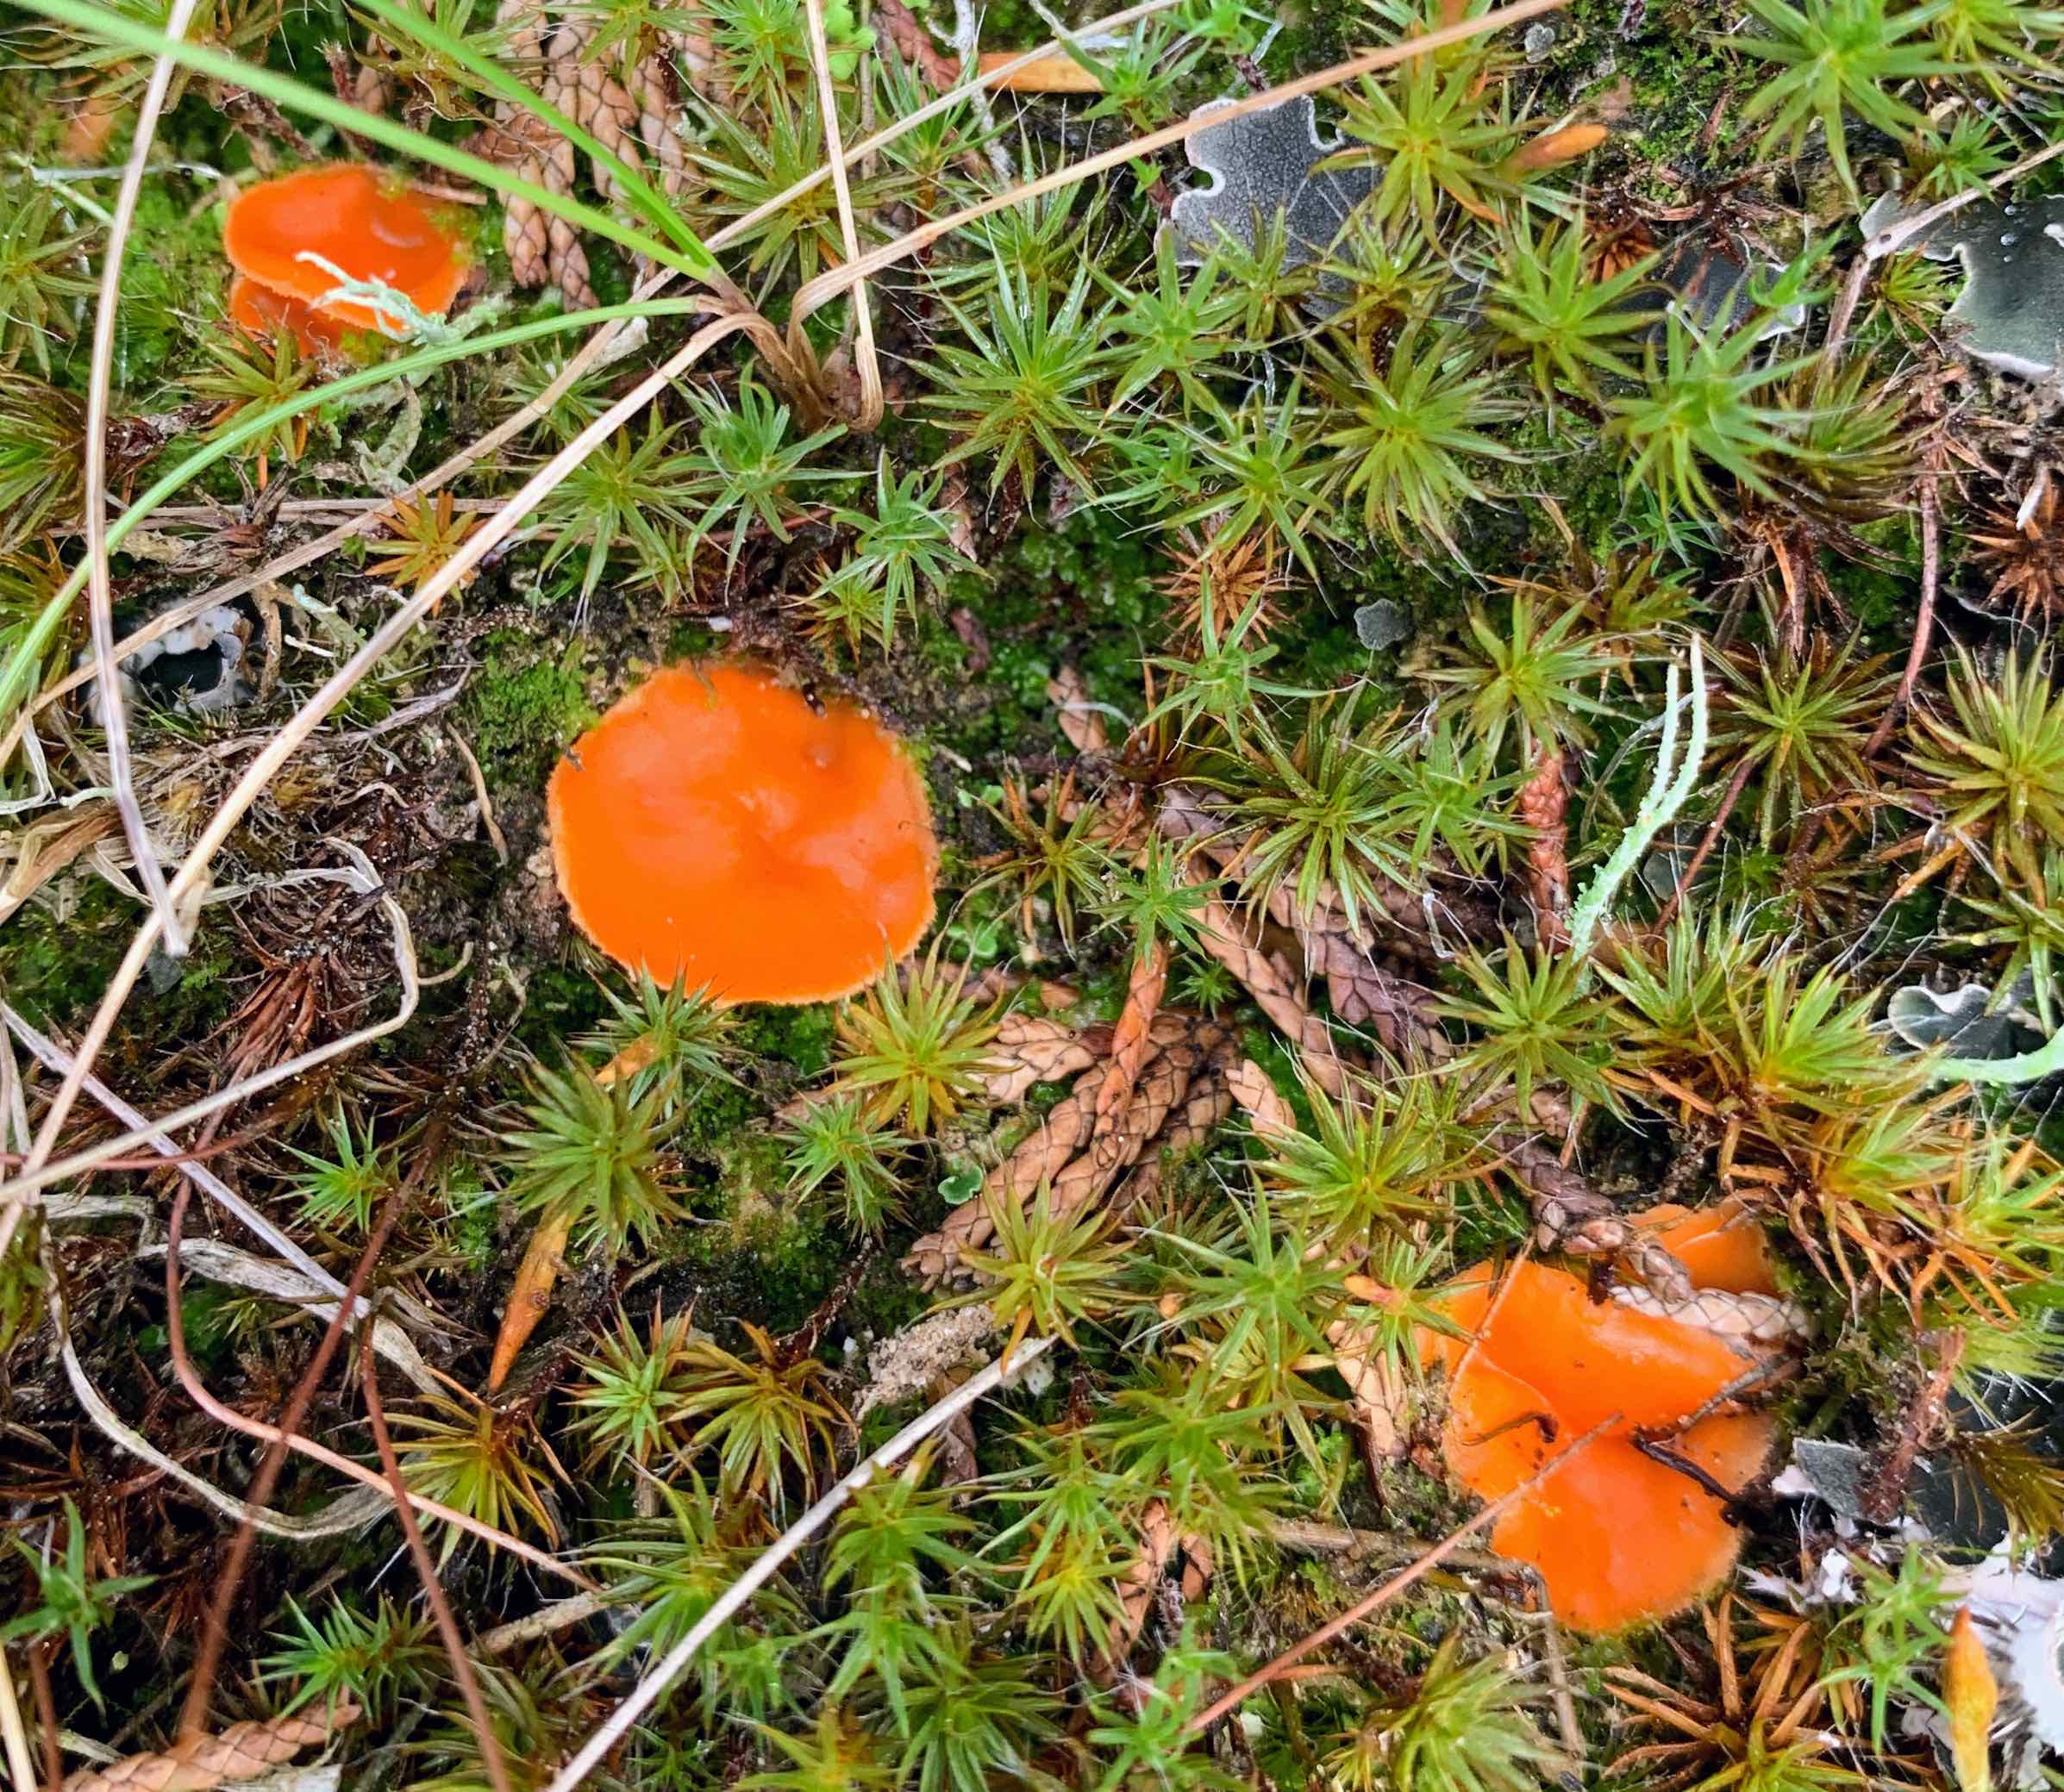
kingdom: Fungi
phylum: Ascomycota
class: Pezizomycetes
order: Pezizales
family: Pyronemataceae
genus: Neottiella
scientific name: Neottiella
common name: mosbæger
